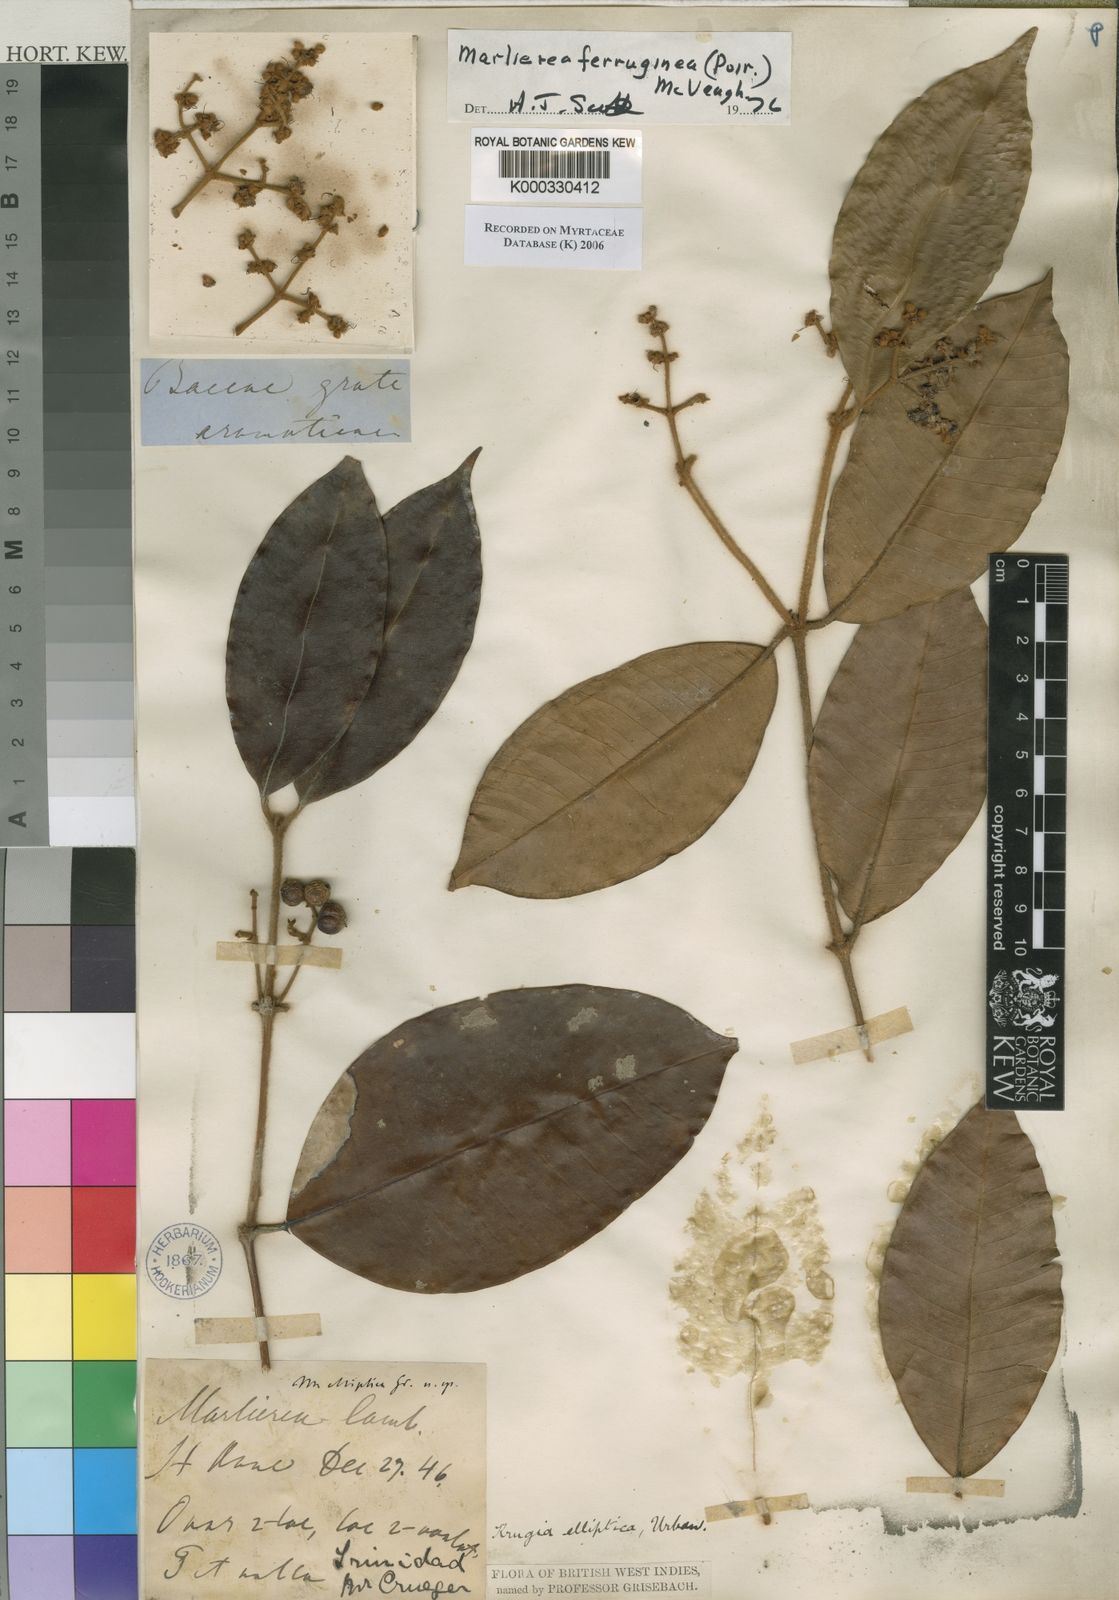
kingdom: Plantae
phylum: Tracheophyta
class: Magnoliopsida
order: Myrtales
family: Myrtaceae
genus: Myrcia
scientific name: Myrcia ferruginea
